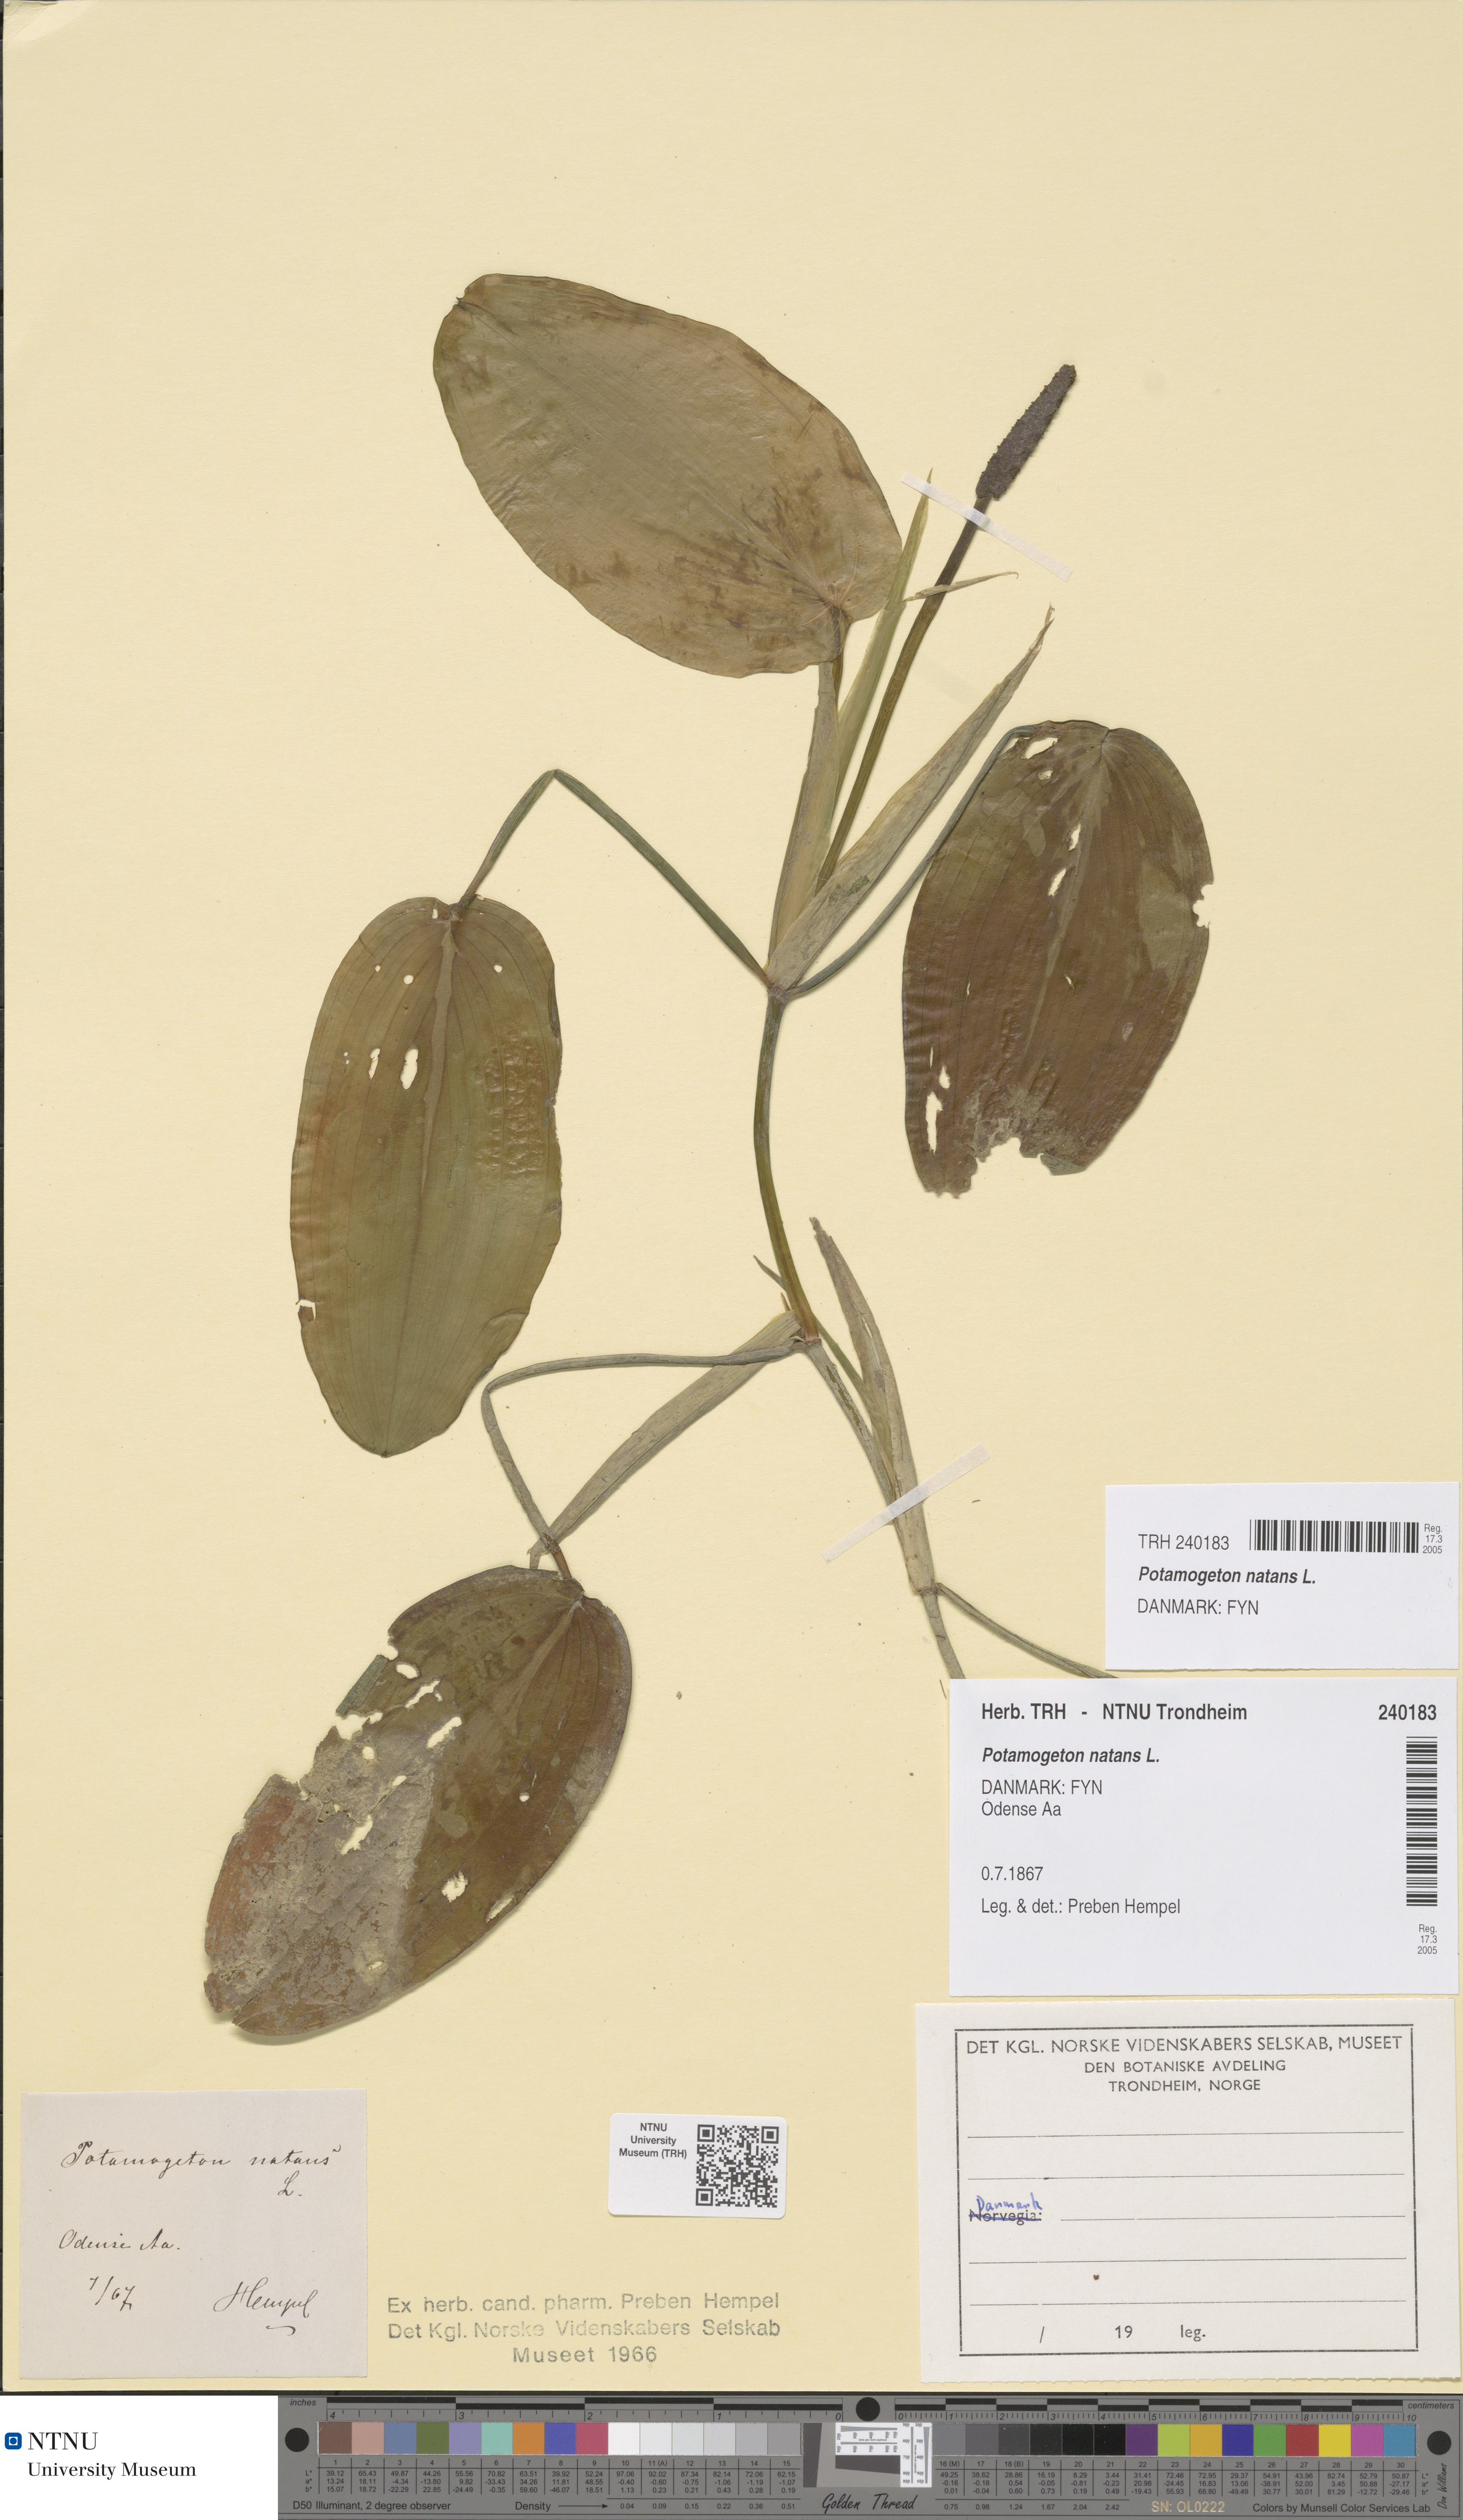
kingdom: Plantae
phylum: Tracheophyta
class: Liliopsida
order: Alismatales
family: Potamogetonaceae
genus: Potamogeton
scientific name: Potamogeton natans
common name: Broad-leaved pondweed
